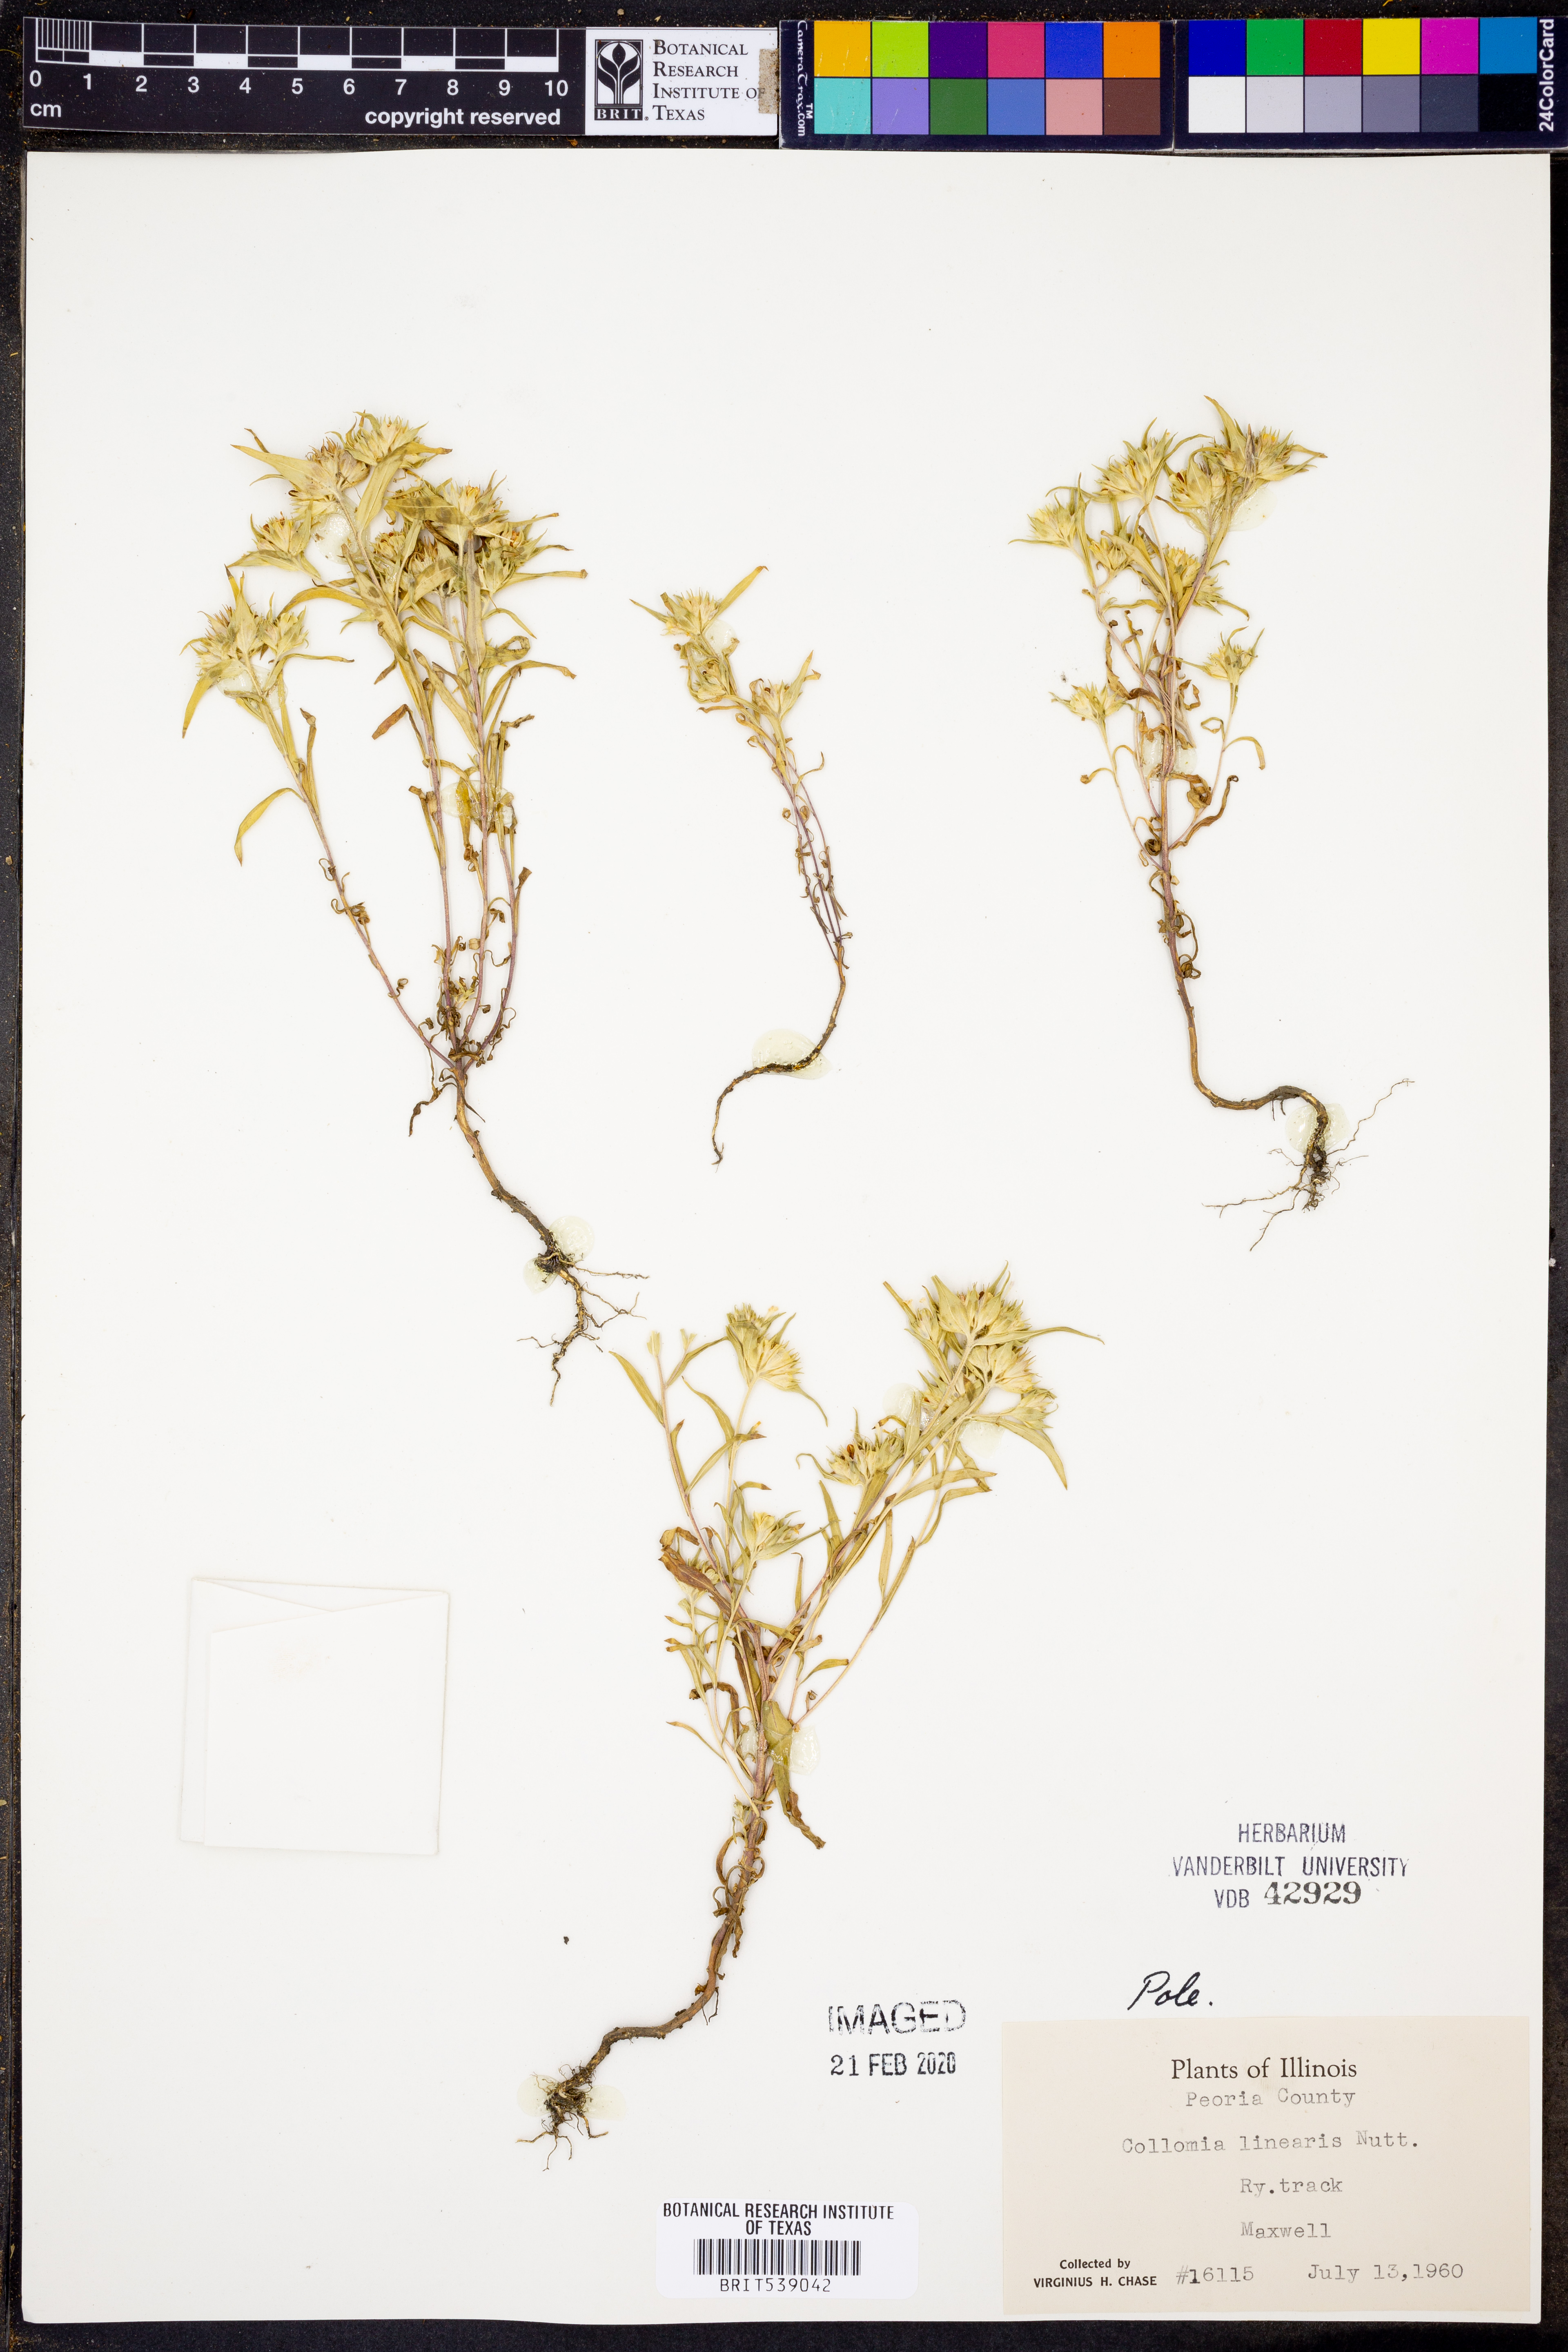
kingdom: Plantae
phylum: Tracheophyta
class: Magnoliopsida
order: Ericales
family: Polemoniaceae
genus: Collomia
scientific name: Collomia linearis
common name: Tiny trumpet
